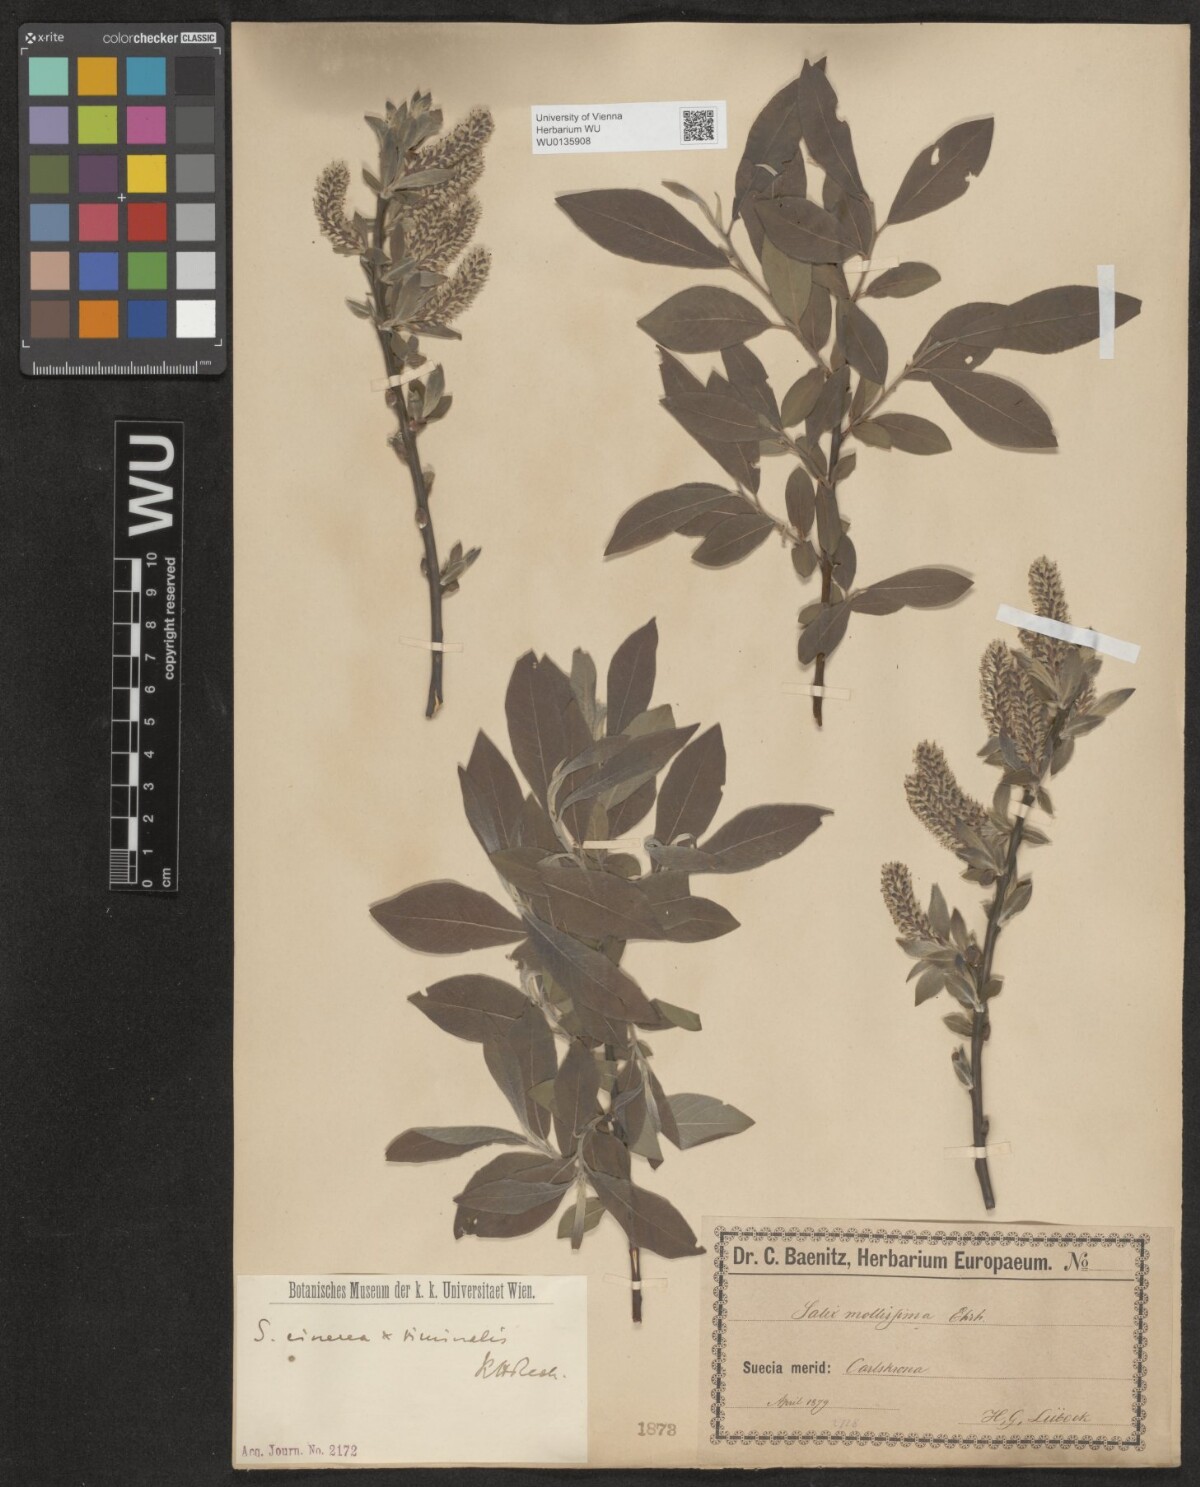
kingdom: Plantae
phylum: Tracheophyta
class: Magnoliopsida
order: Malpighiales
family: Salicaceae
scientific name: Salicaceae
